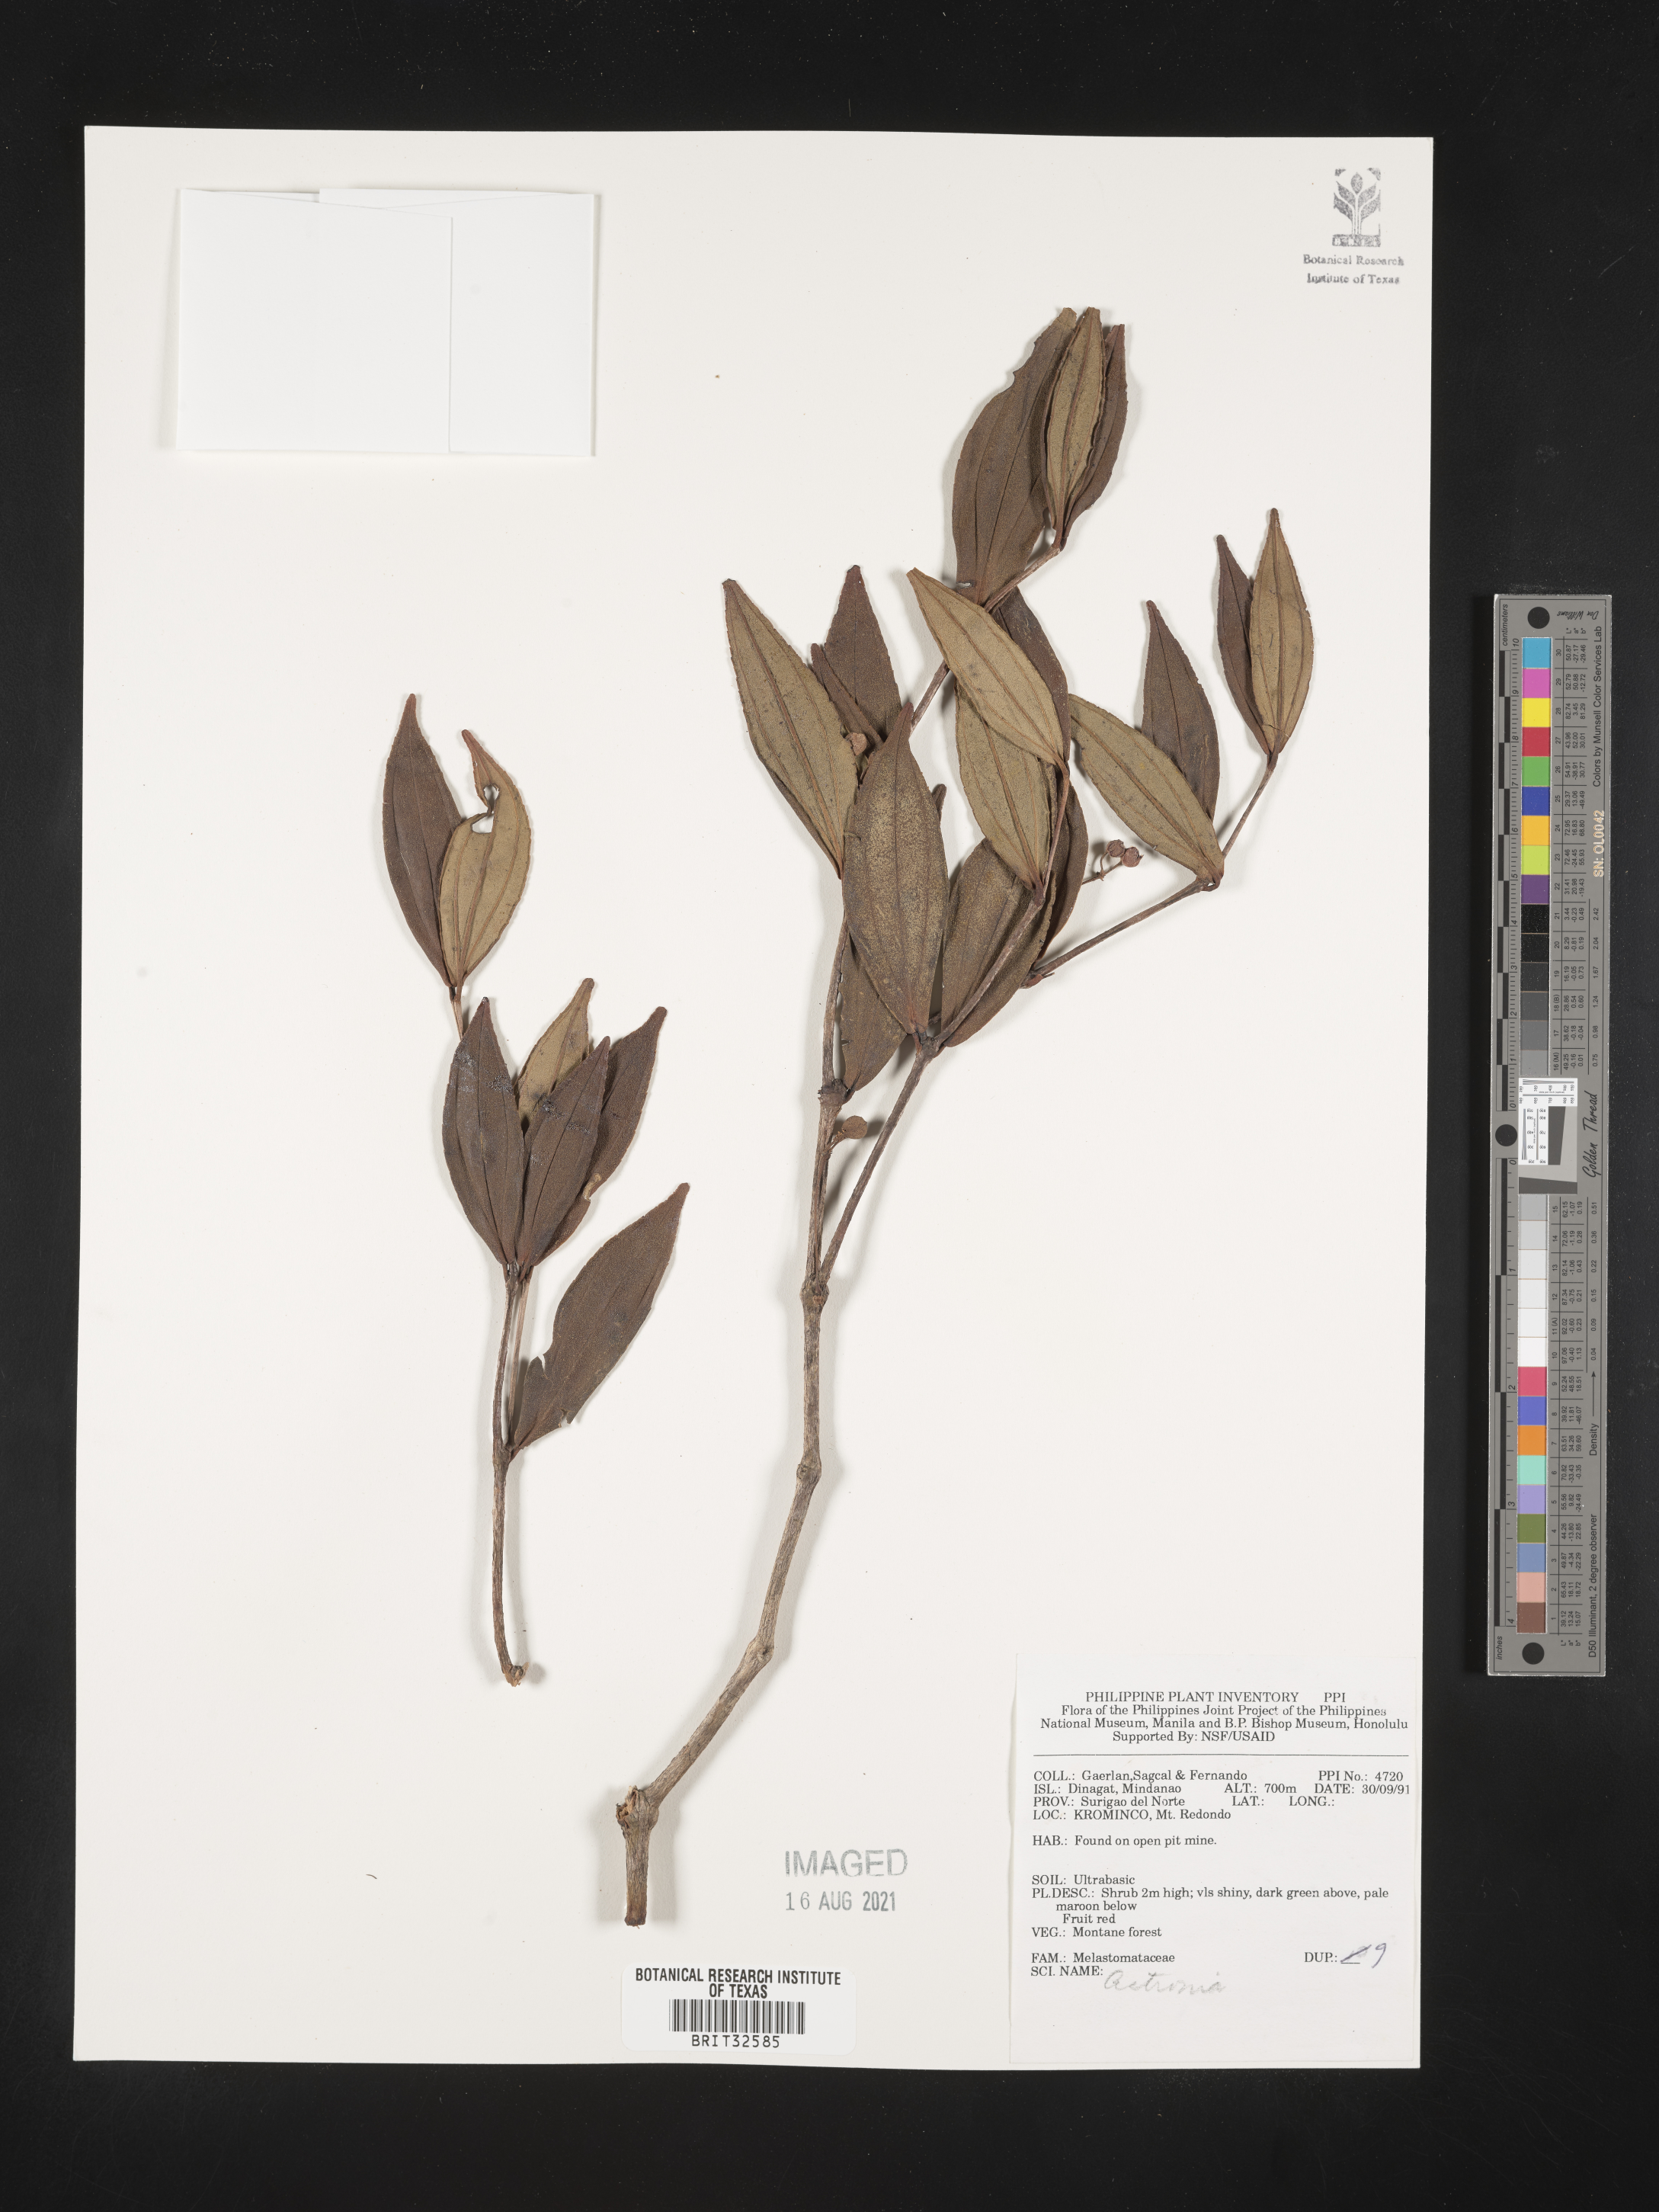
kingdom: Plantae
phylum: Tracheophyta
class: Magnoliopsida
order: Myrtales
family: Melastomataceae
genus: Astronia
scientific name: Astronia
